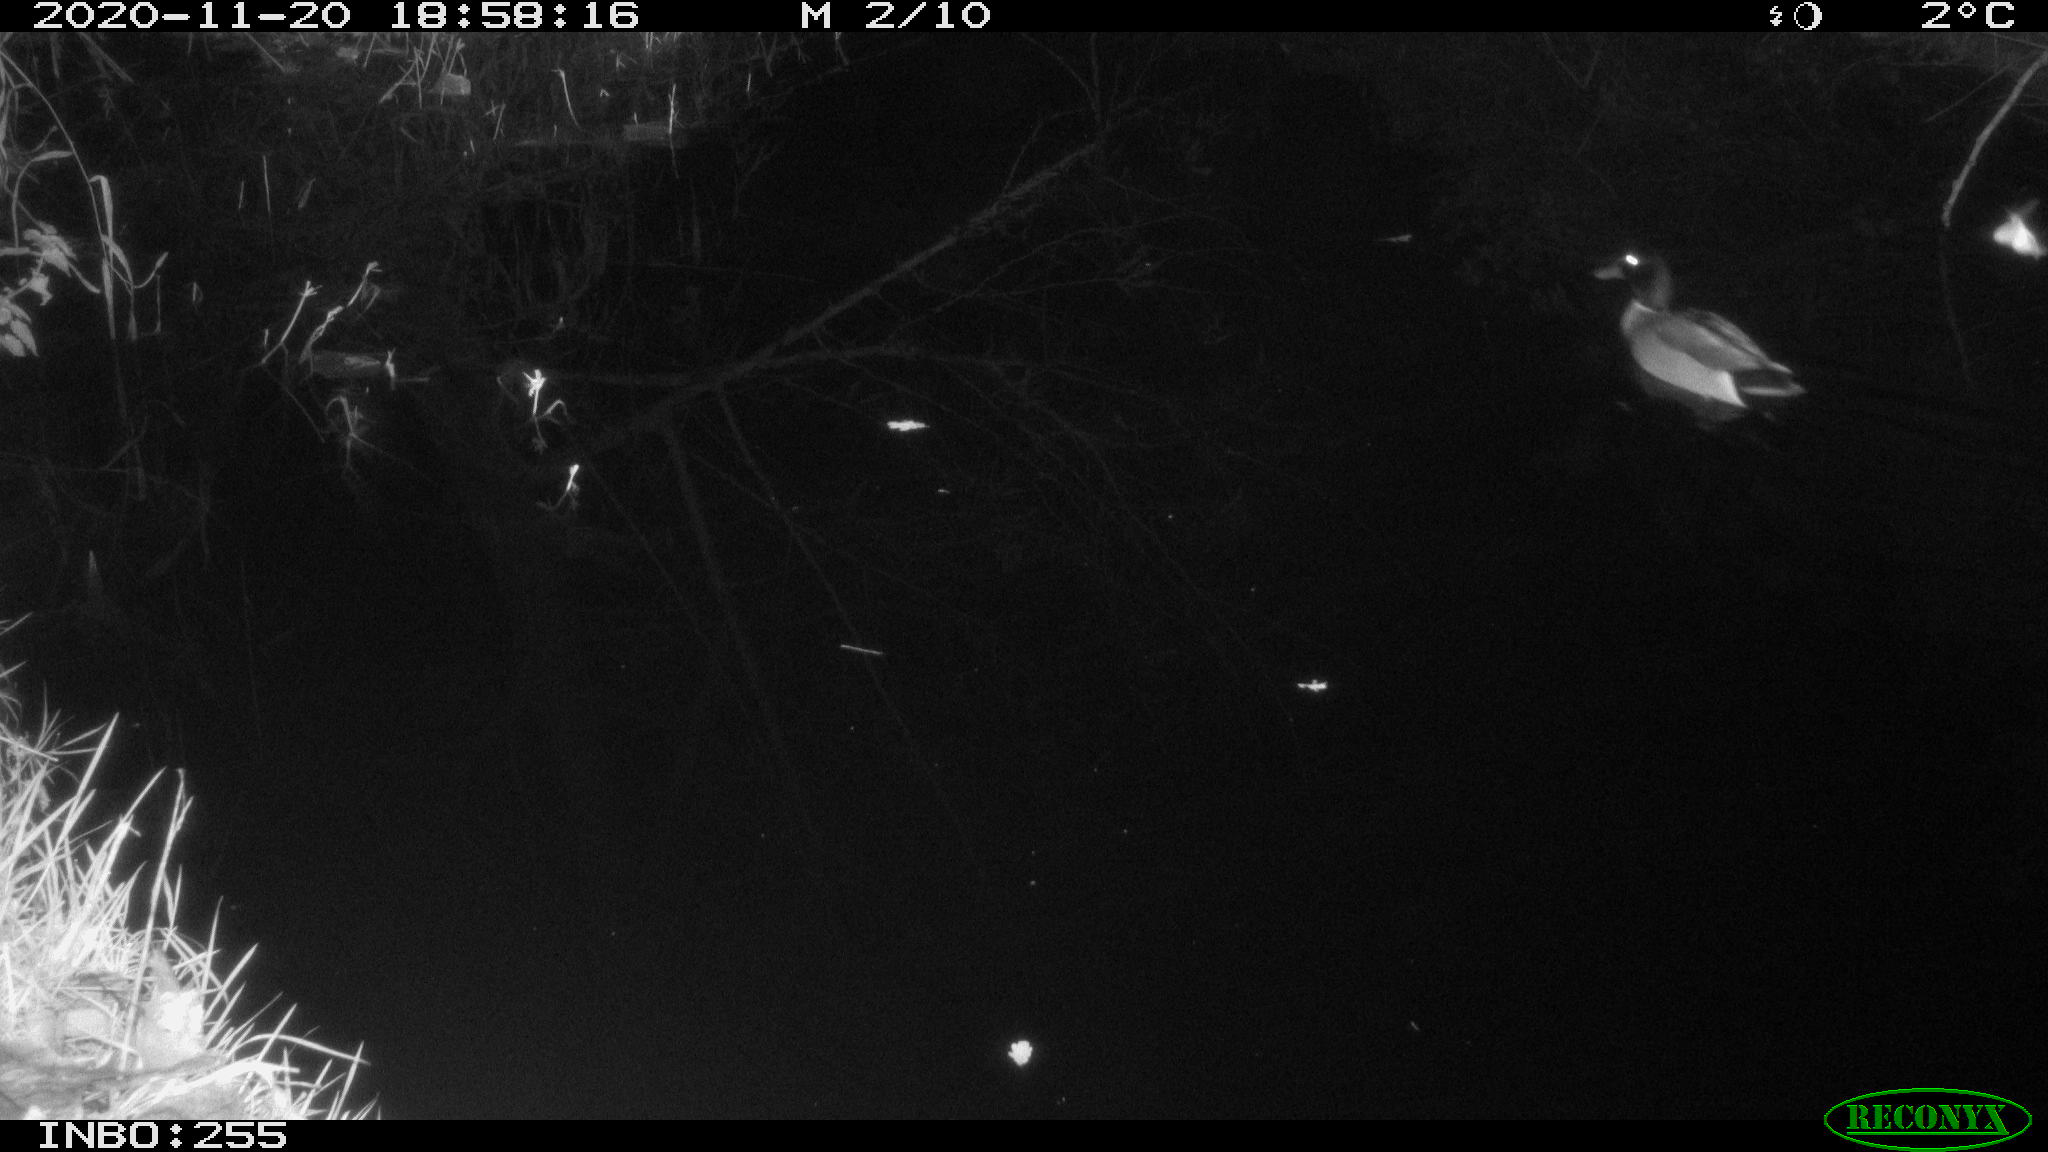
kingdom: Animalia
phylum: Chordata
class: Aves
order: Anseriformes
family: Anatidae
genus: Anas
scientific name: Anas platyrhynchos
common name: Mallard
